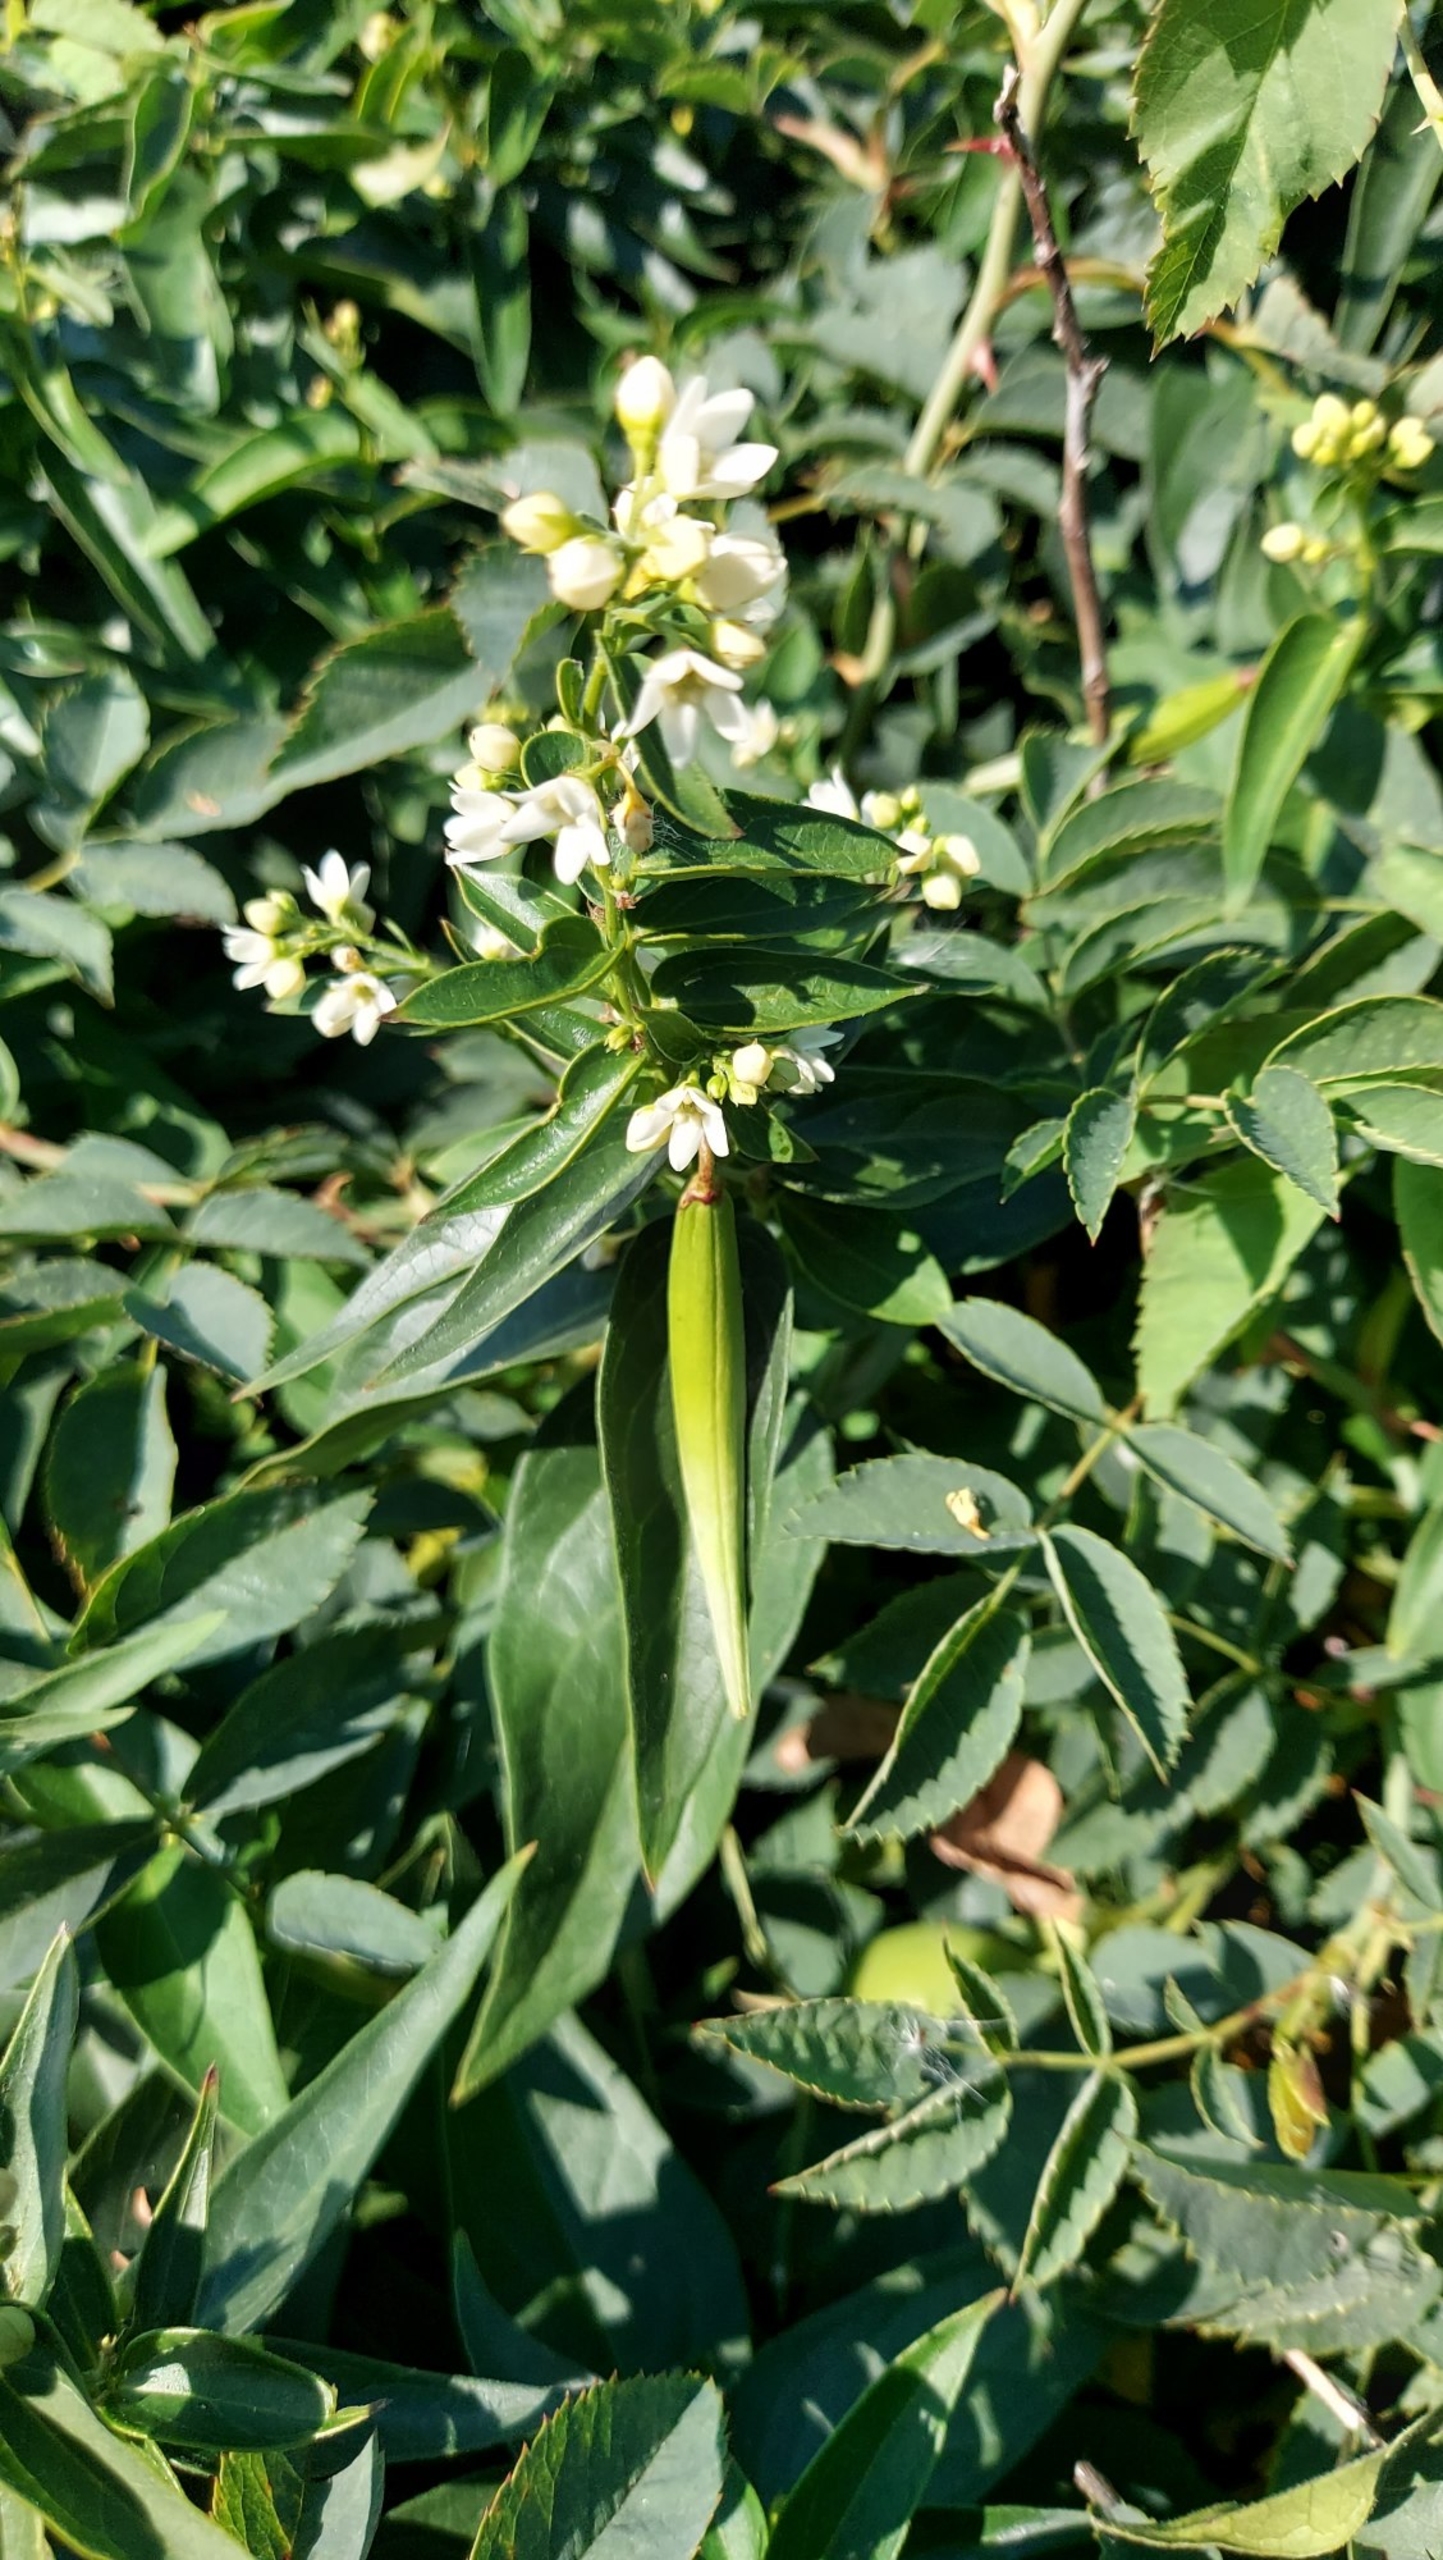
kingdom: Plantae
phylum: Tracheophyta
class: Magnoliopsida
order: Gentianales
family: Apocynaceae
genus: Vincetoxicum
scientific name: Vincetoxicum hirundinaria
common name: Svalerod
